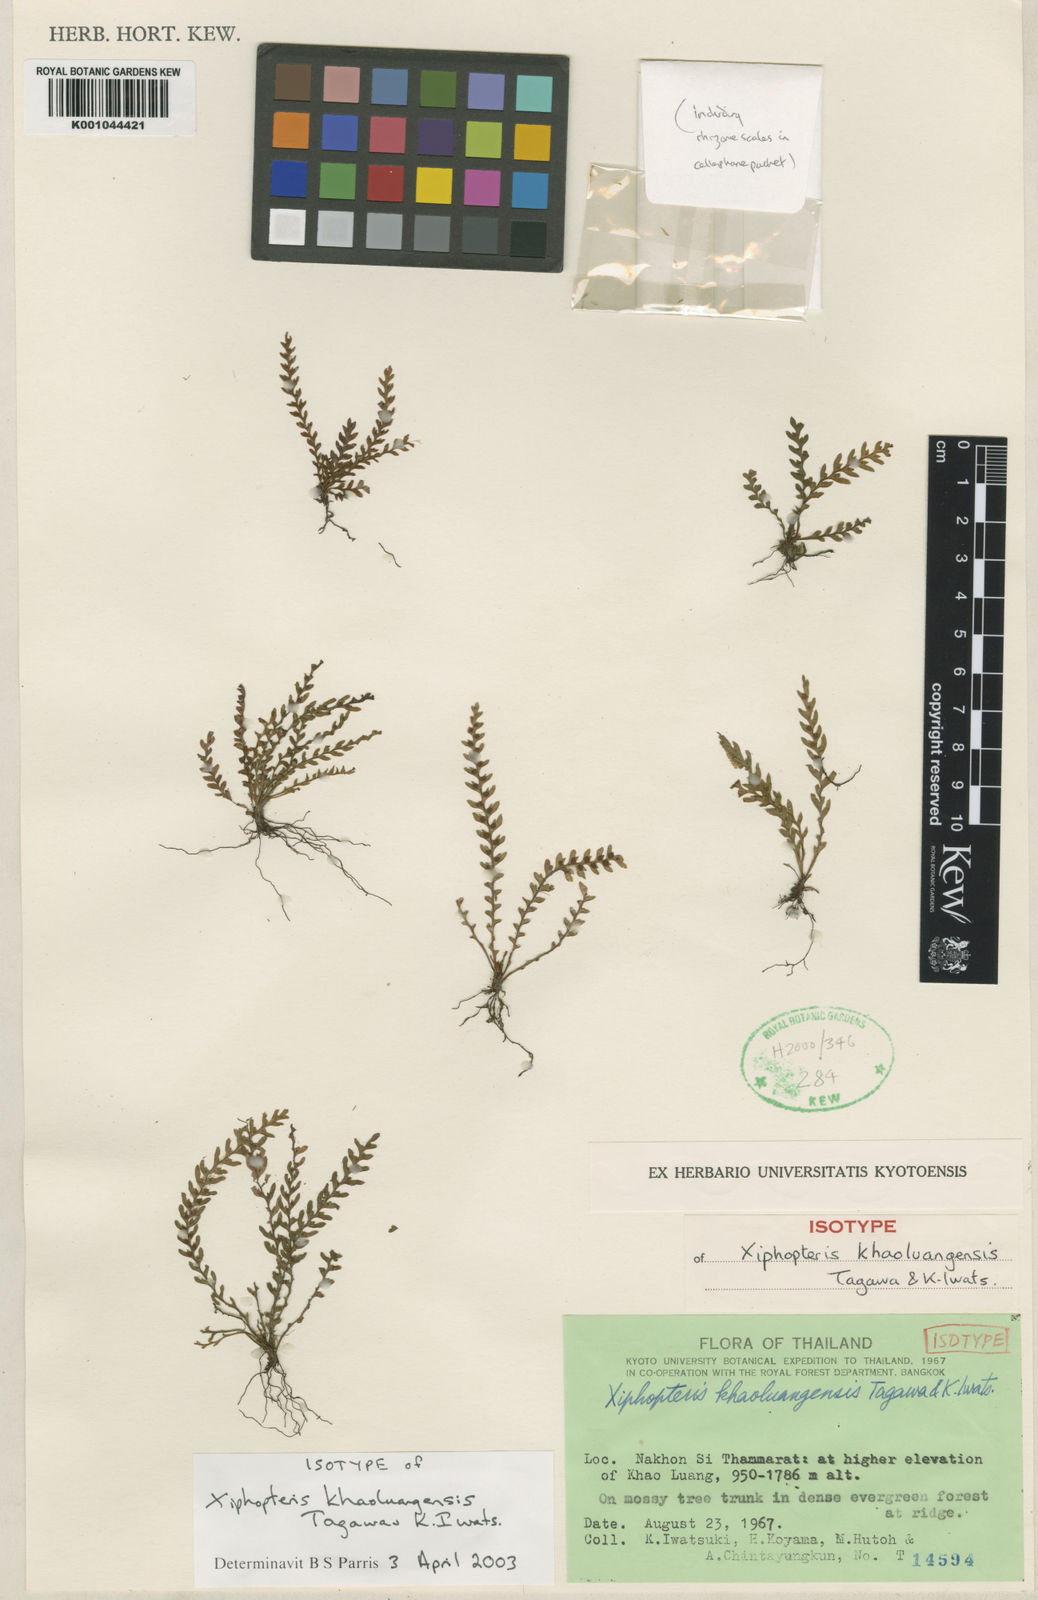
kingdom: Plantae
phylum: Tracheophyta
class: Polypodiopsida
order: Polypodiales
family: Polypodiaceae
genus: Ctenopterella
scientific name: Ctenopterella khaoluangensis
